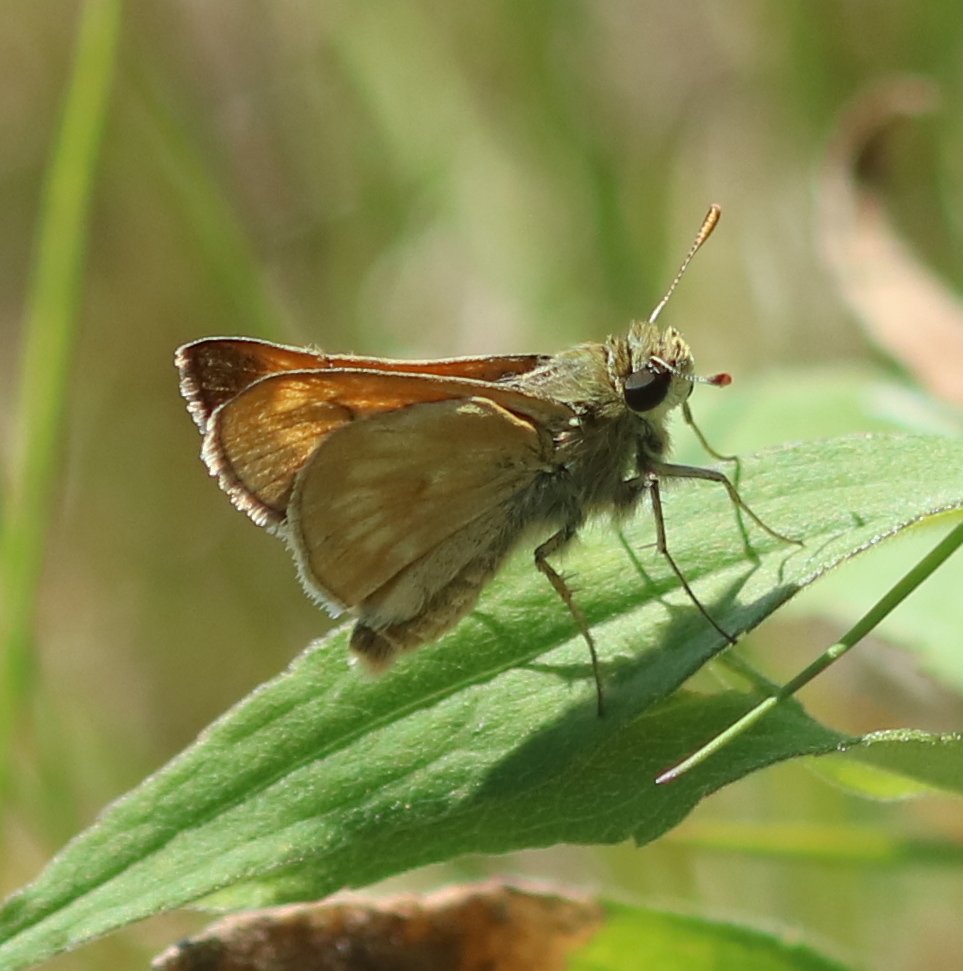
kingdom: Animalia
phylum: Arthropoda
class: Insecta
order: Lepidoptera
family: Hesperiidae
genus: Polites
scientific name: Polites
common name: Long Dash Skipper
